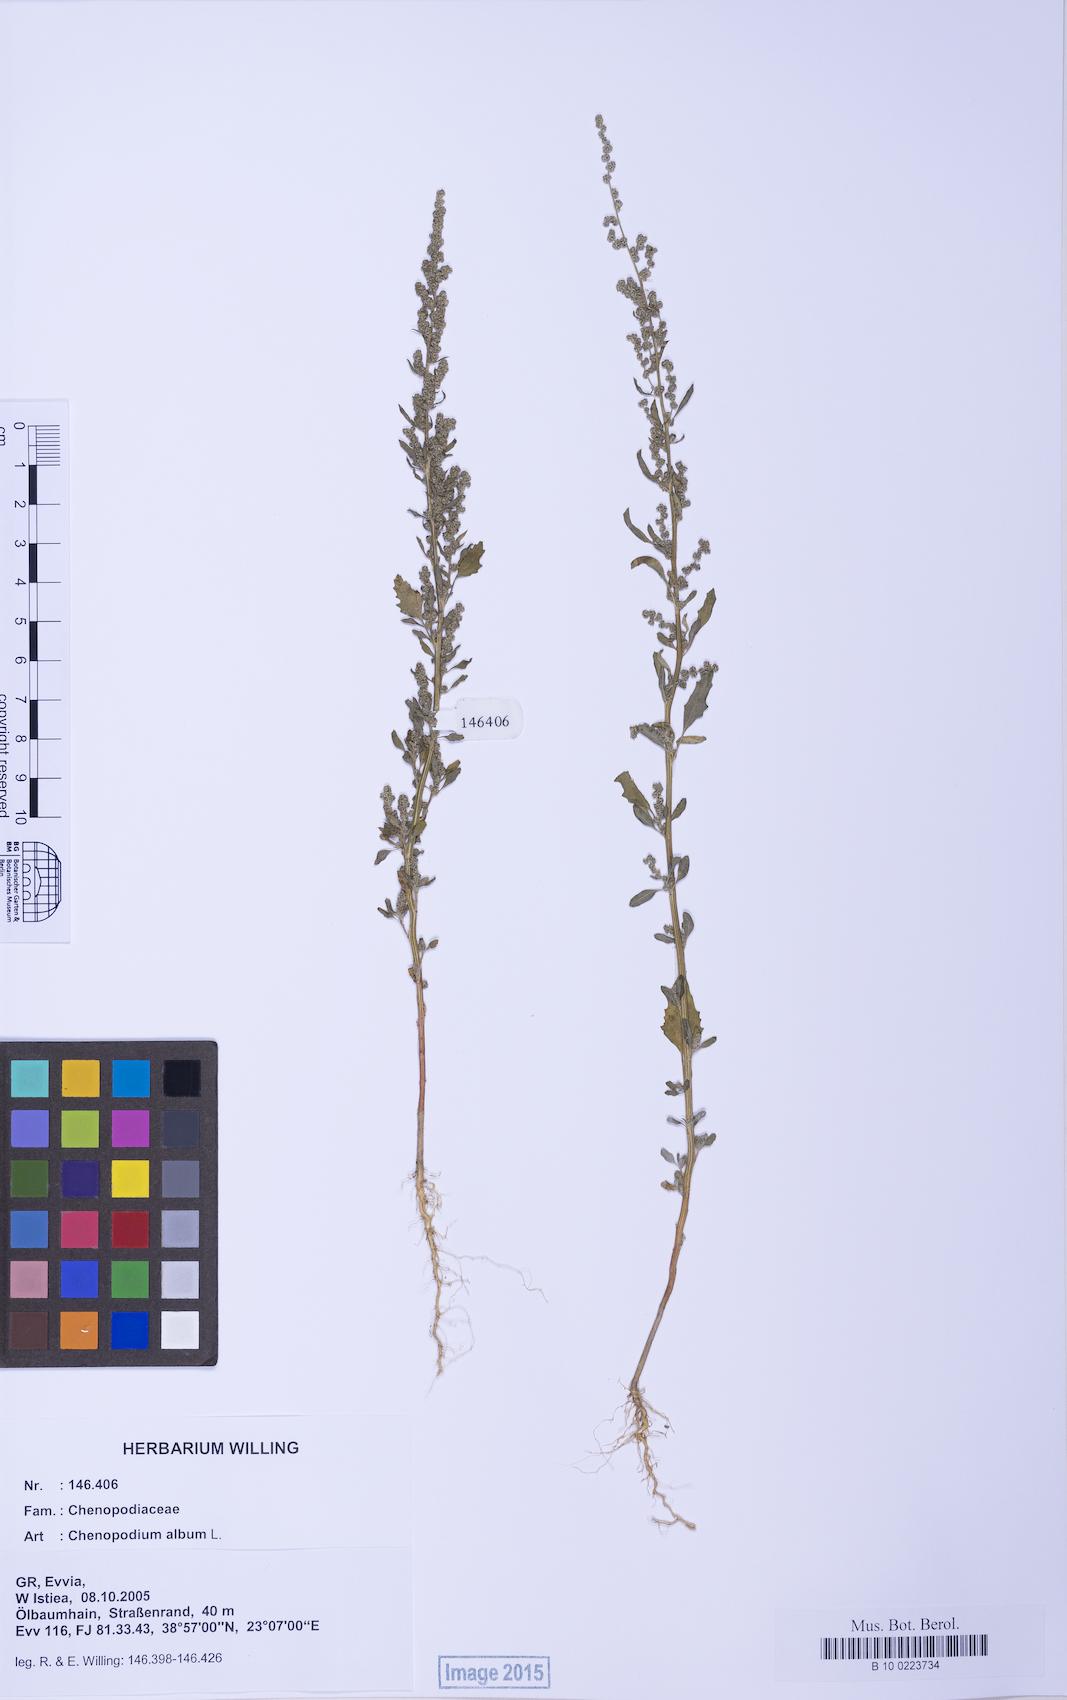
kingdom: Plantae
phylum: Tracheophyta
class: Magnoliopsida
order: Caryophyllales
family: Amaranthaceae
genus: Chenopodium
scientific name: Chenopodium album
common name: Fat-hen
